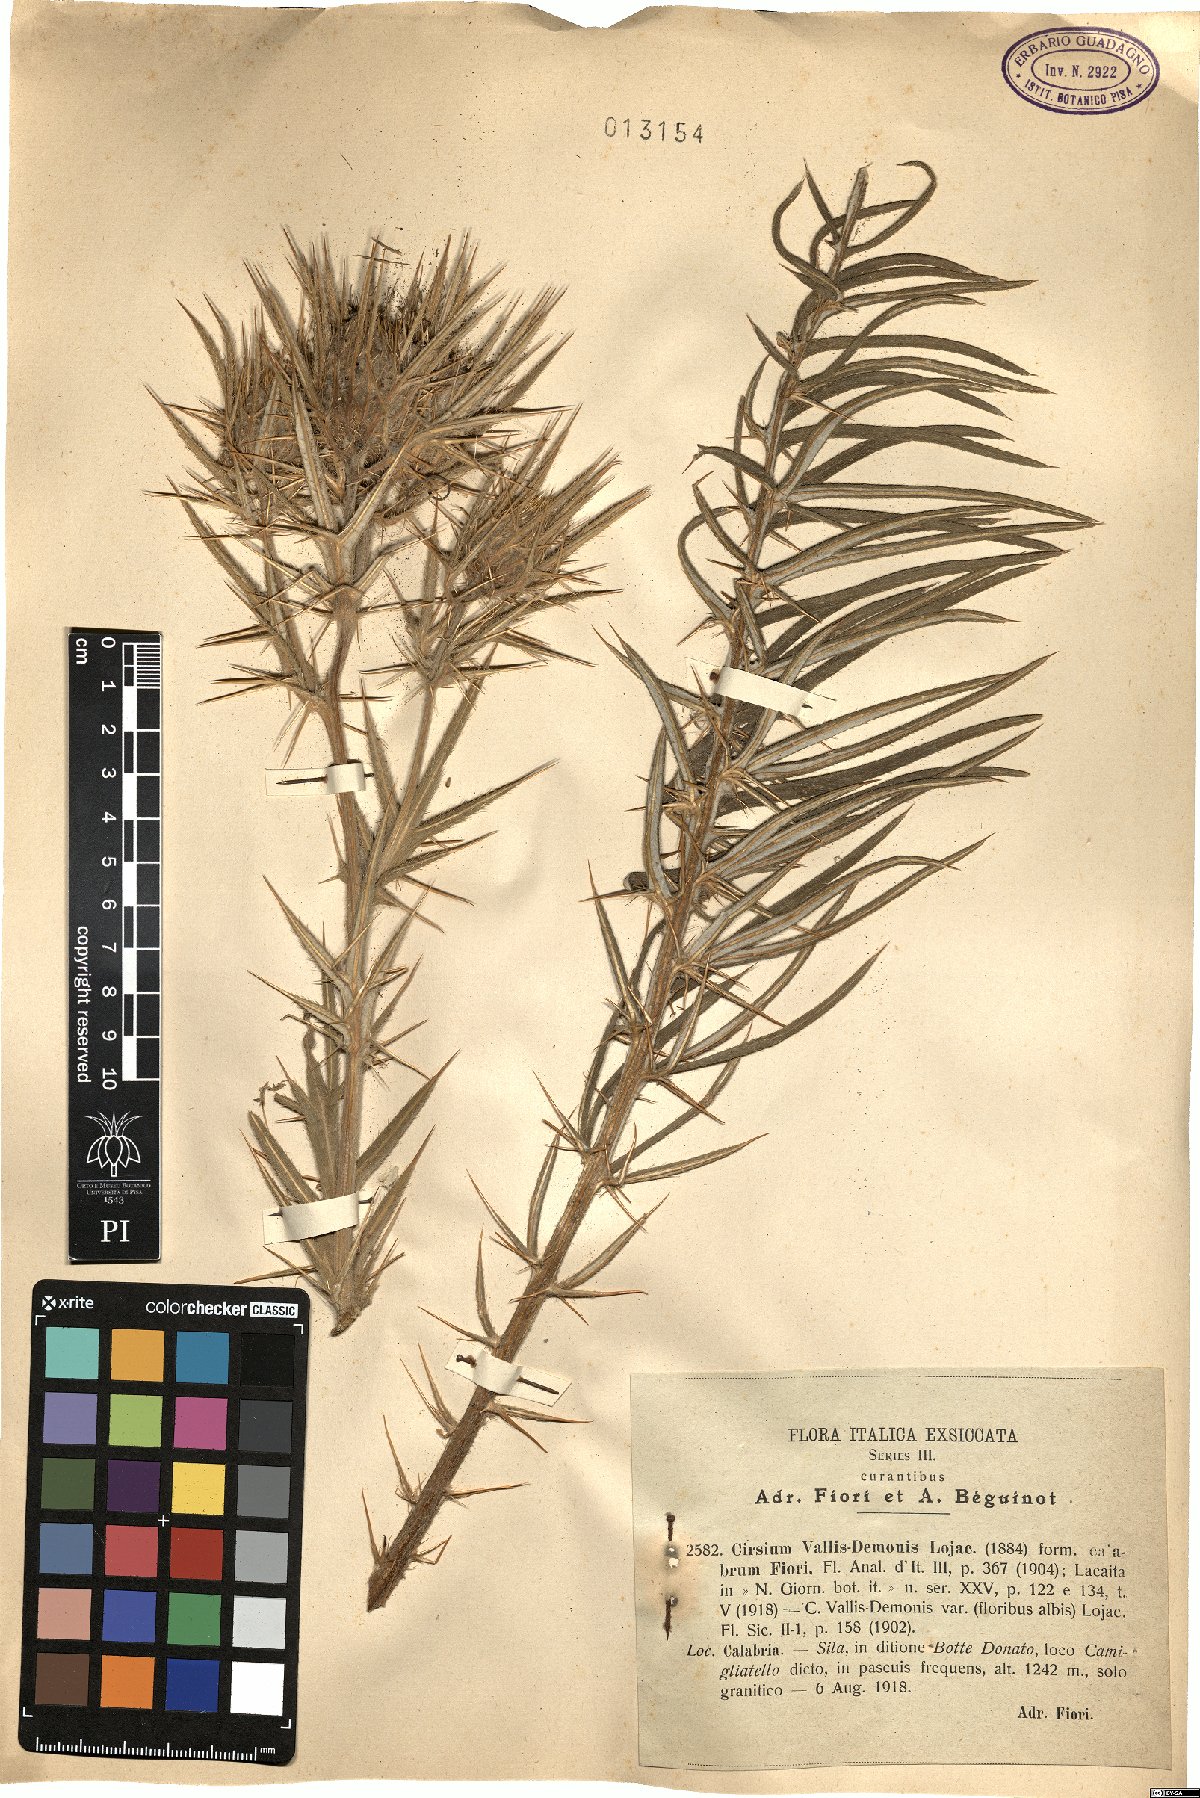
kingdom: Plantae
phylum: Tracheophyta
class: Magnoliopsida
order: Asterales
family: Asteraceae
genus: Lophiolepis
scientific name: Lophiolepis vallis-demonii
